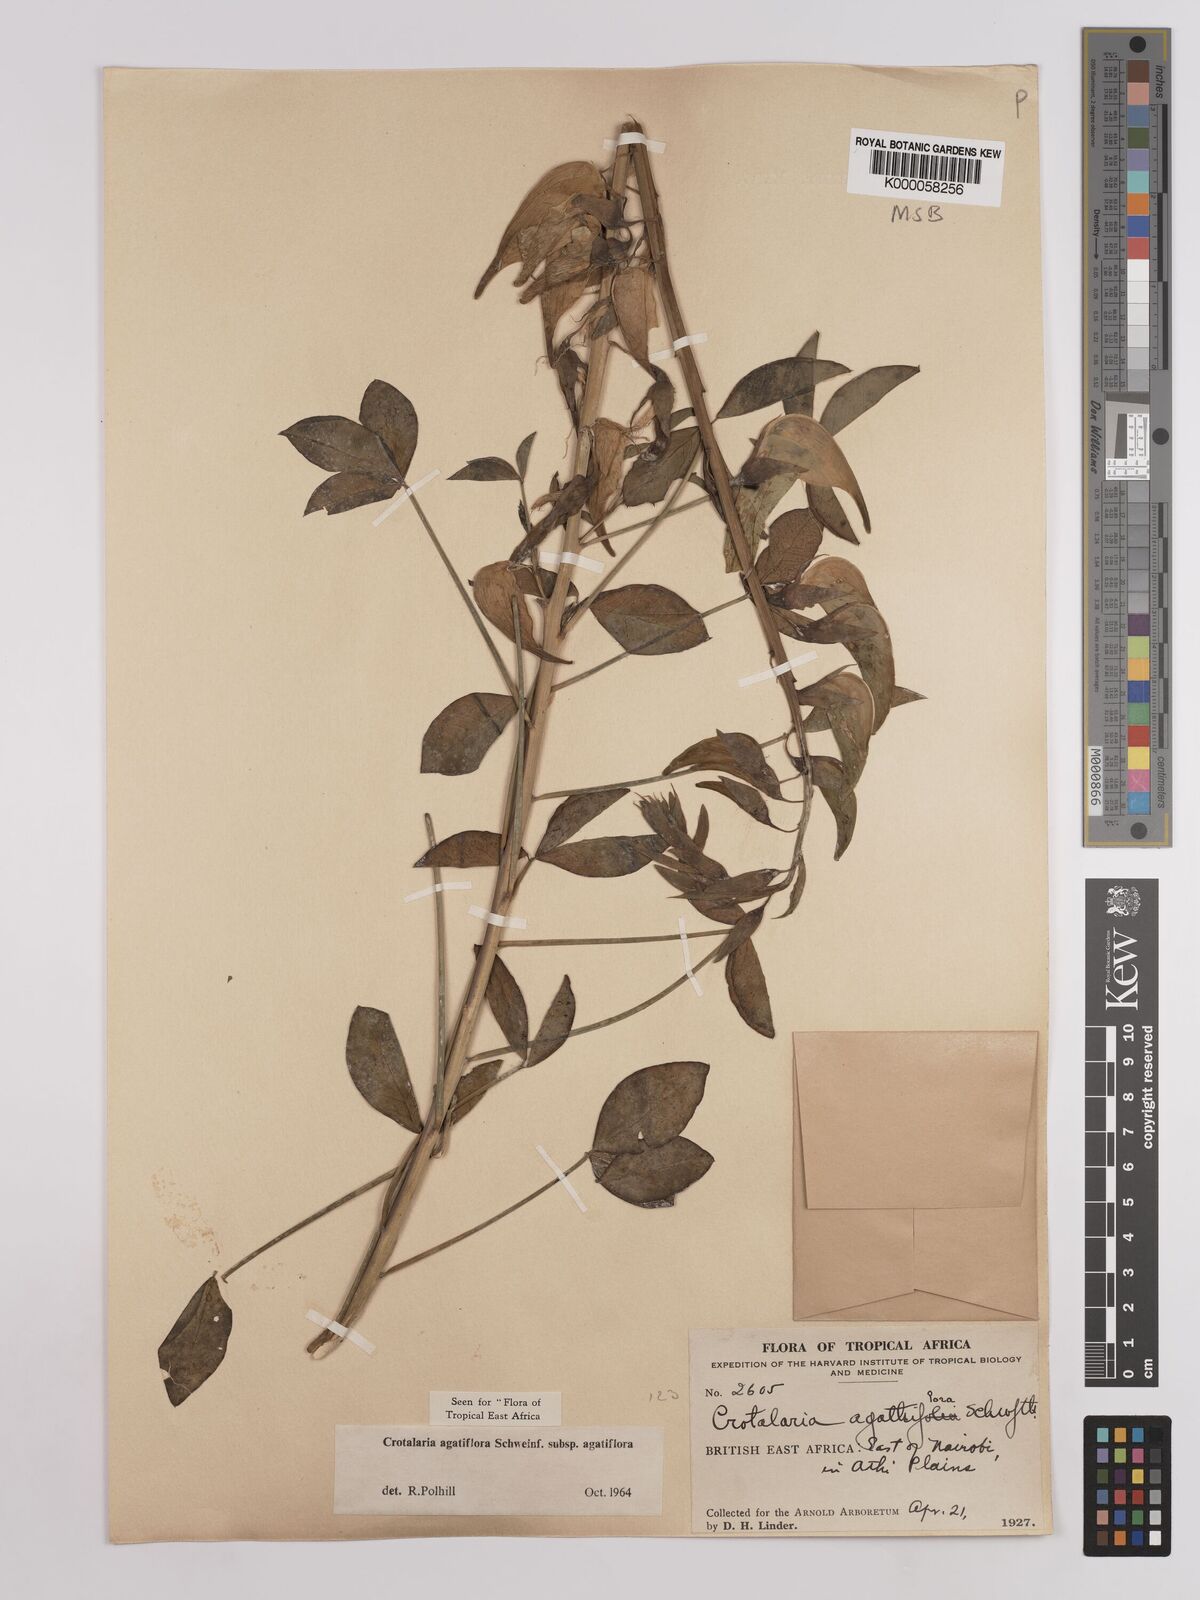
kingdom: Plantae
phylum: Tracheophyta
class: Magnoliopsida
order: Fabales
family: Fabaceae
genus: Crotalaria
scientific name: Crotalaria
